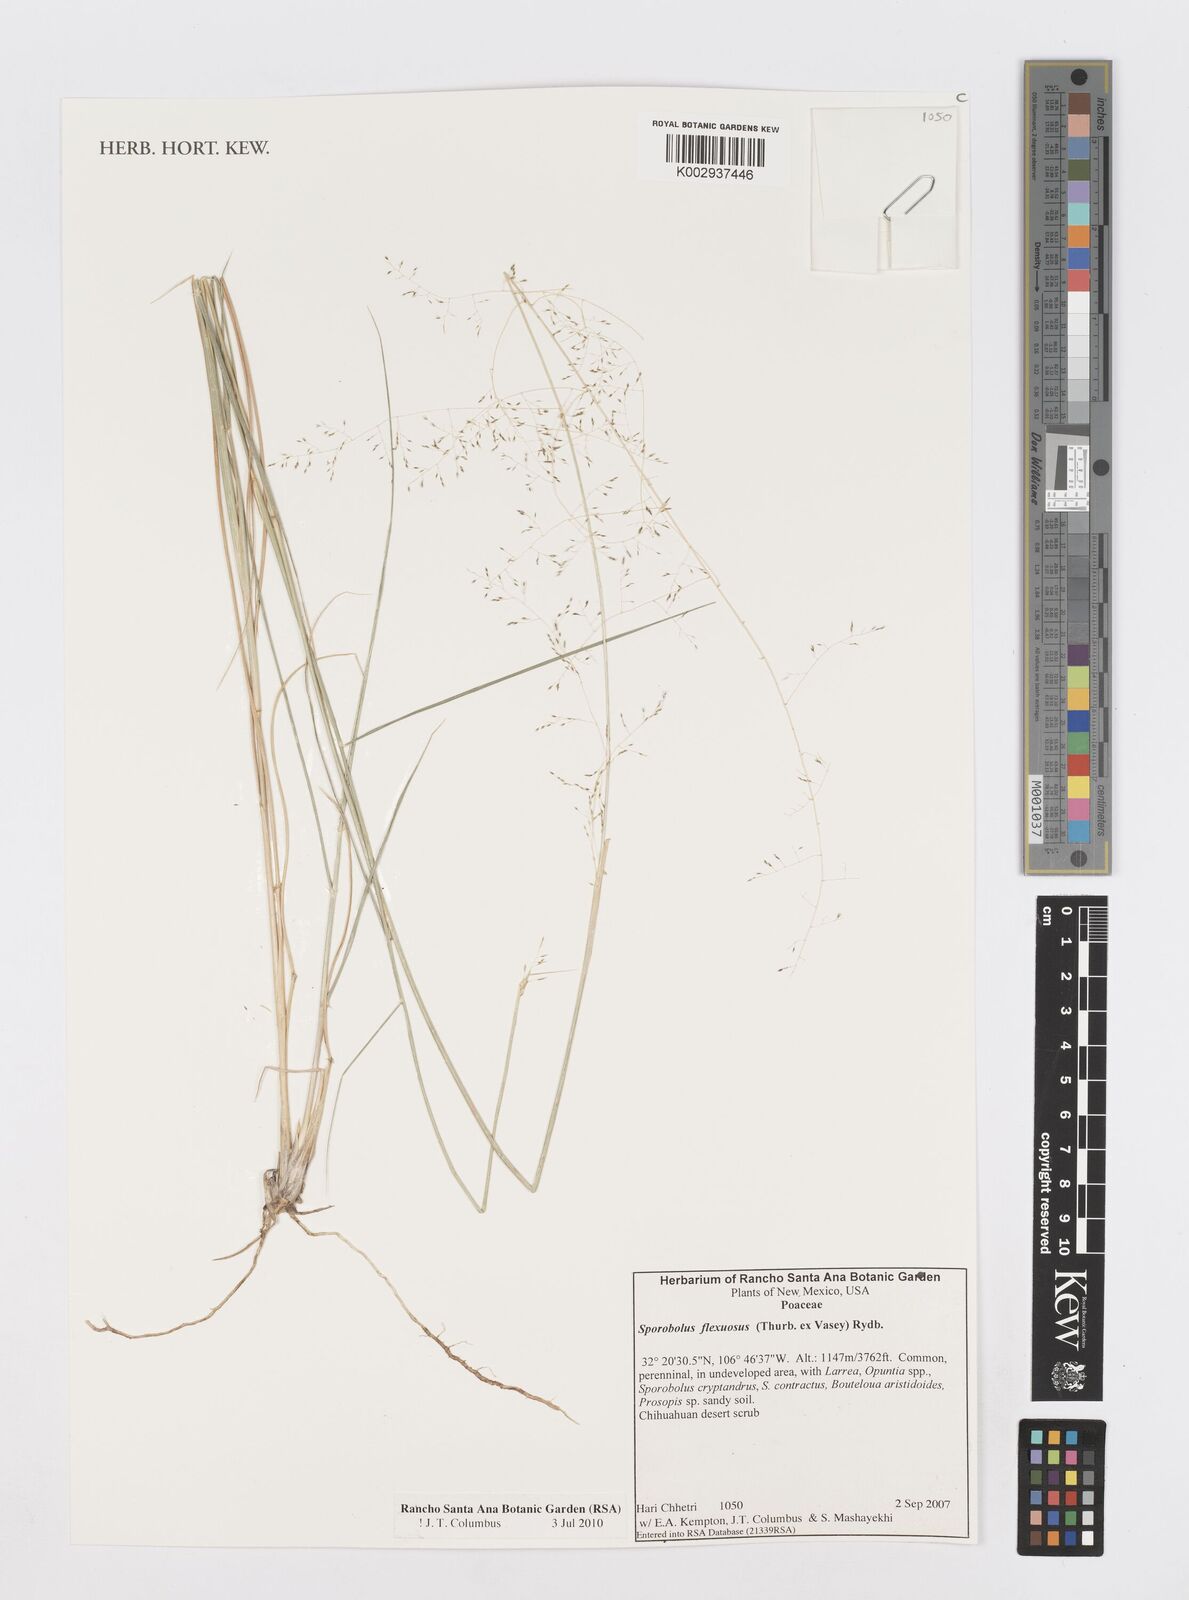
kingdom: Plantae
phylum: Tracheophyta
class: Liliopsida
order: Poales
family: Poaceae
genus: Sporobolus
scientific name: Sporobolus flexuosus
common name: Mesa dropseed
